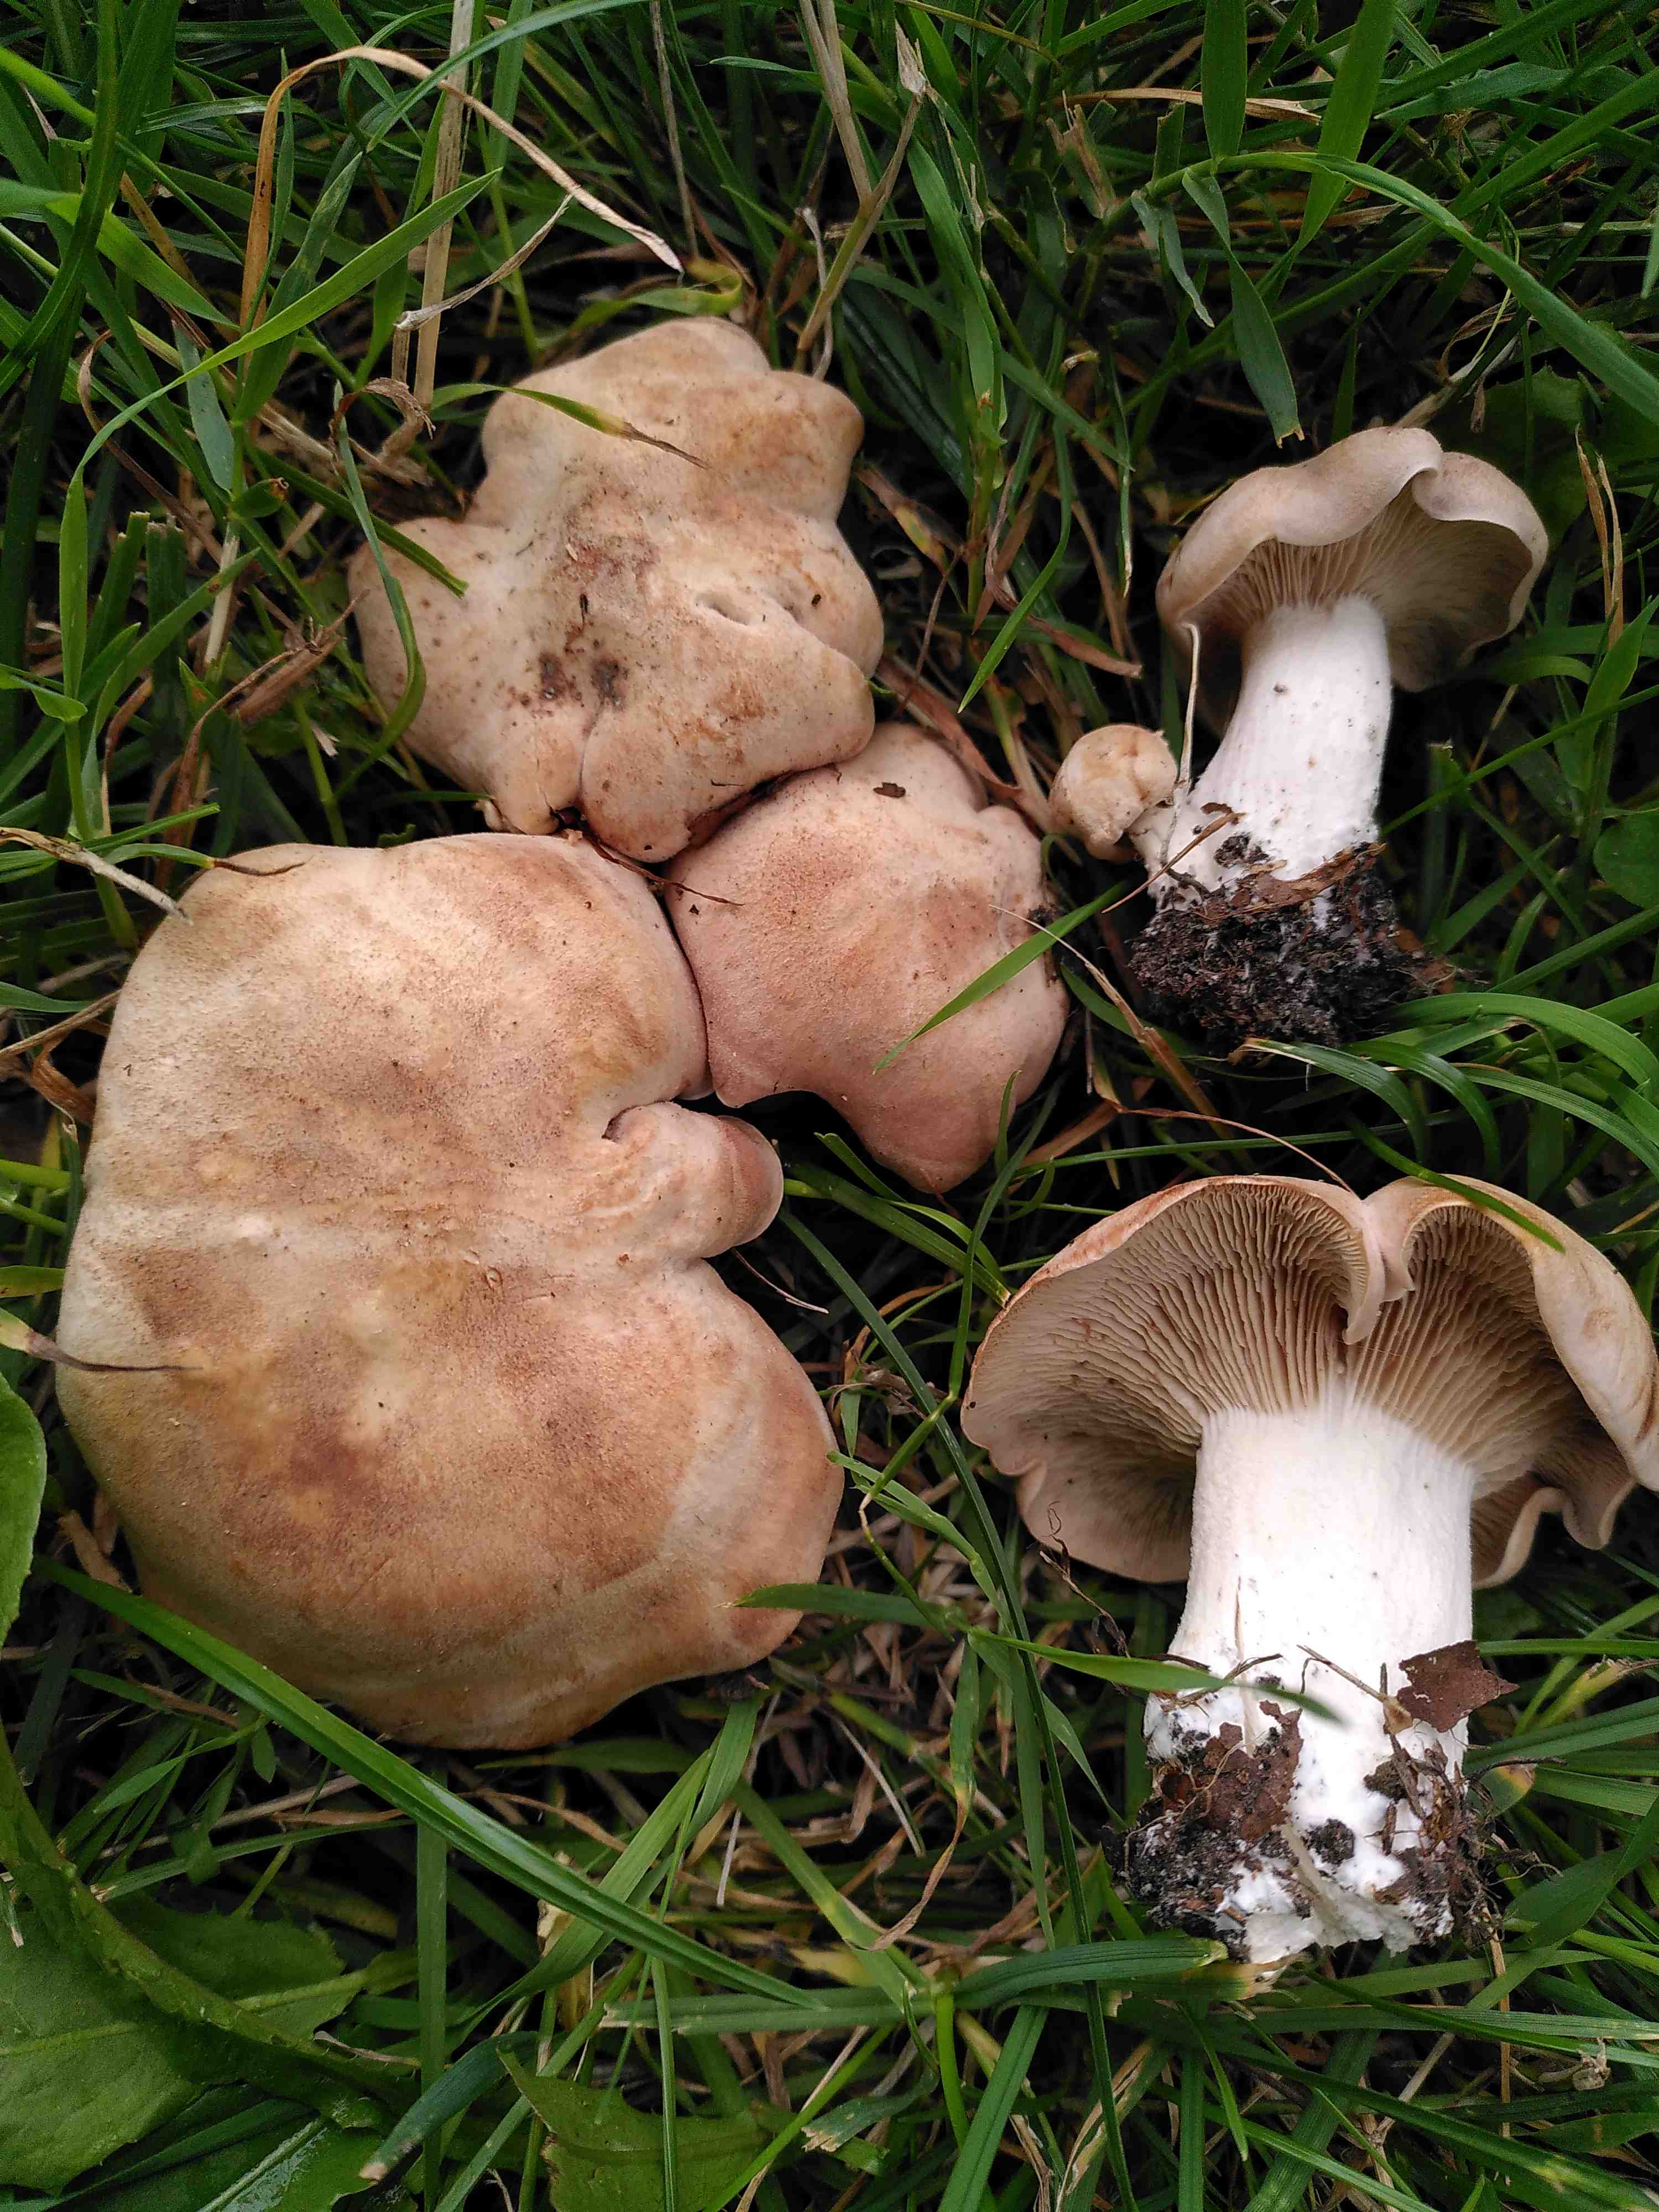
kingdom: Fungi
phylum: Basidiomycota
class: Agaricomycetes
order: Agaricales
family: Entolomataceae
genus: Clitopilus
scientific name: Clitopilus geminus
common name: kødfarvet troldhat
